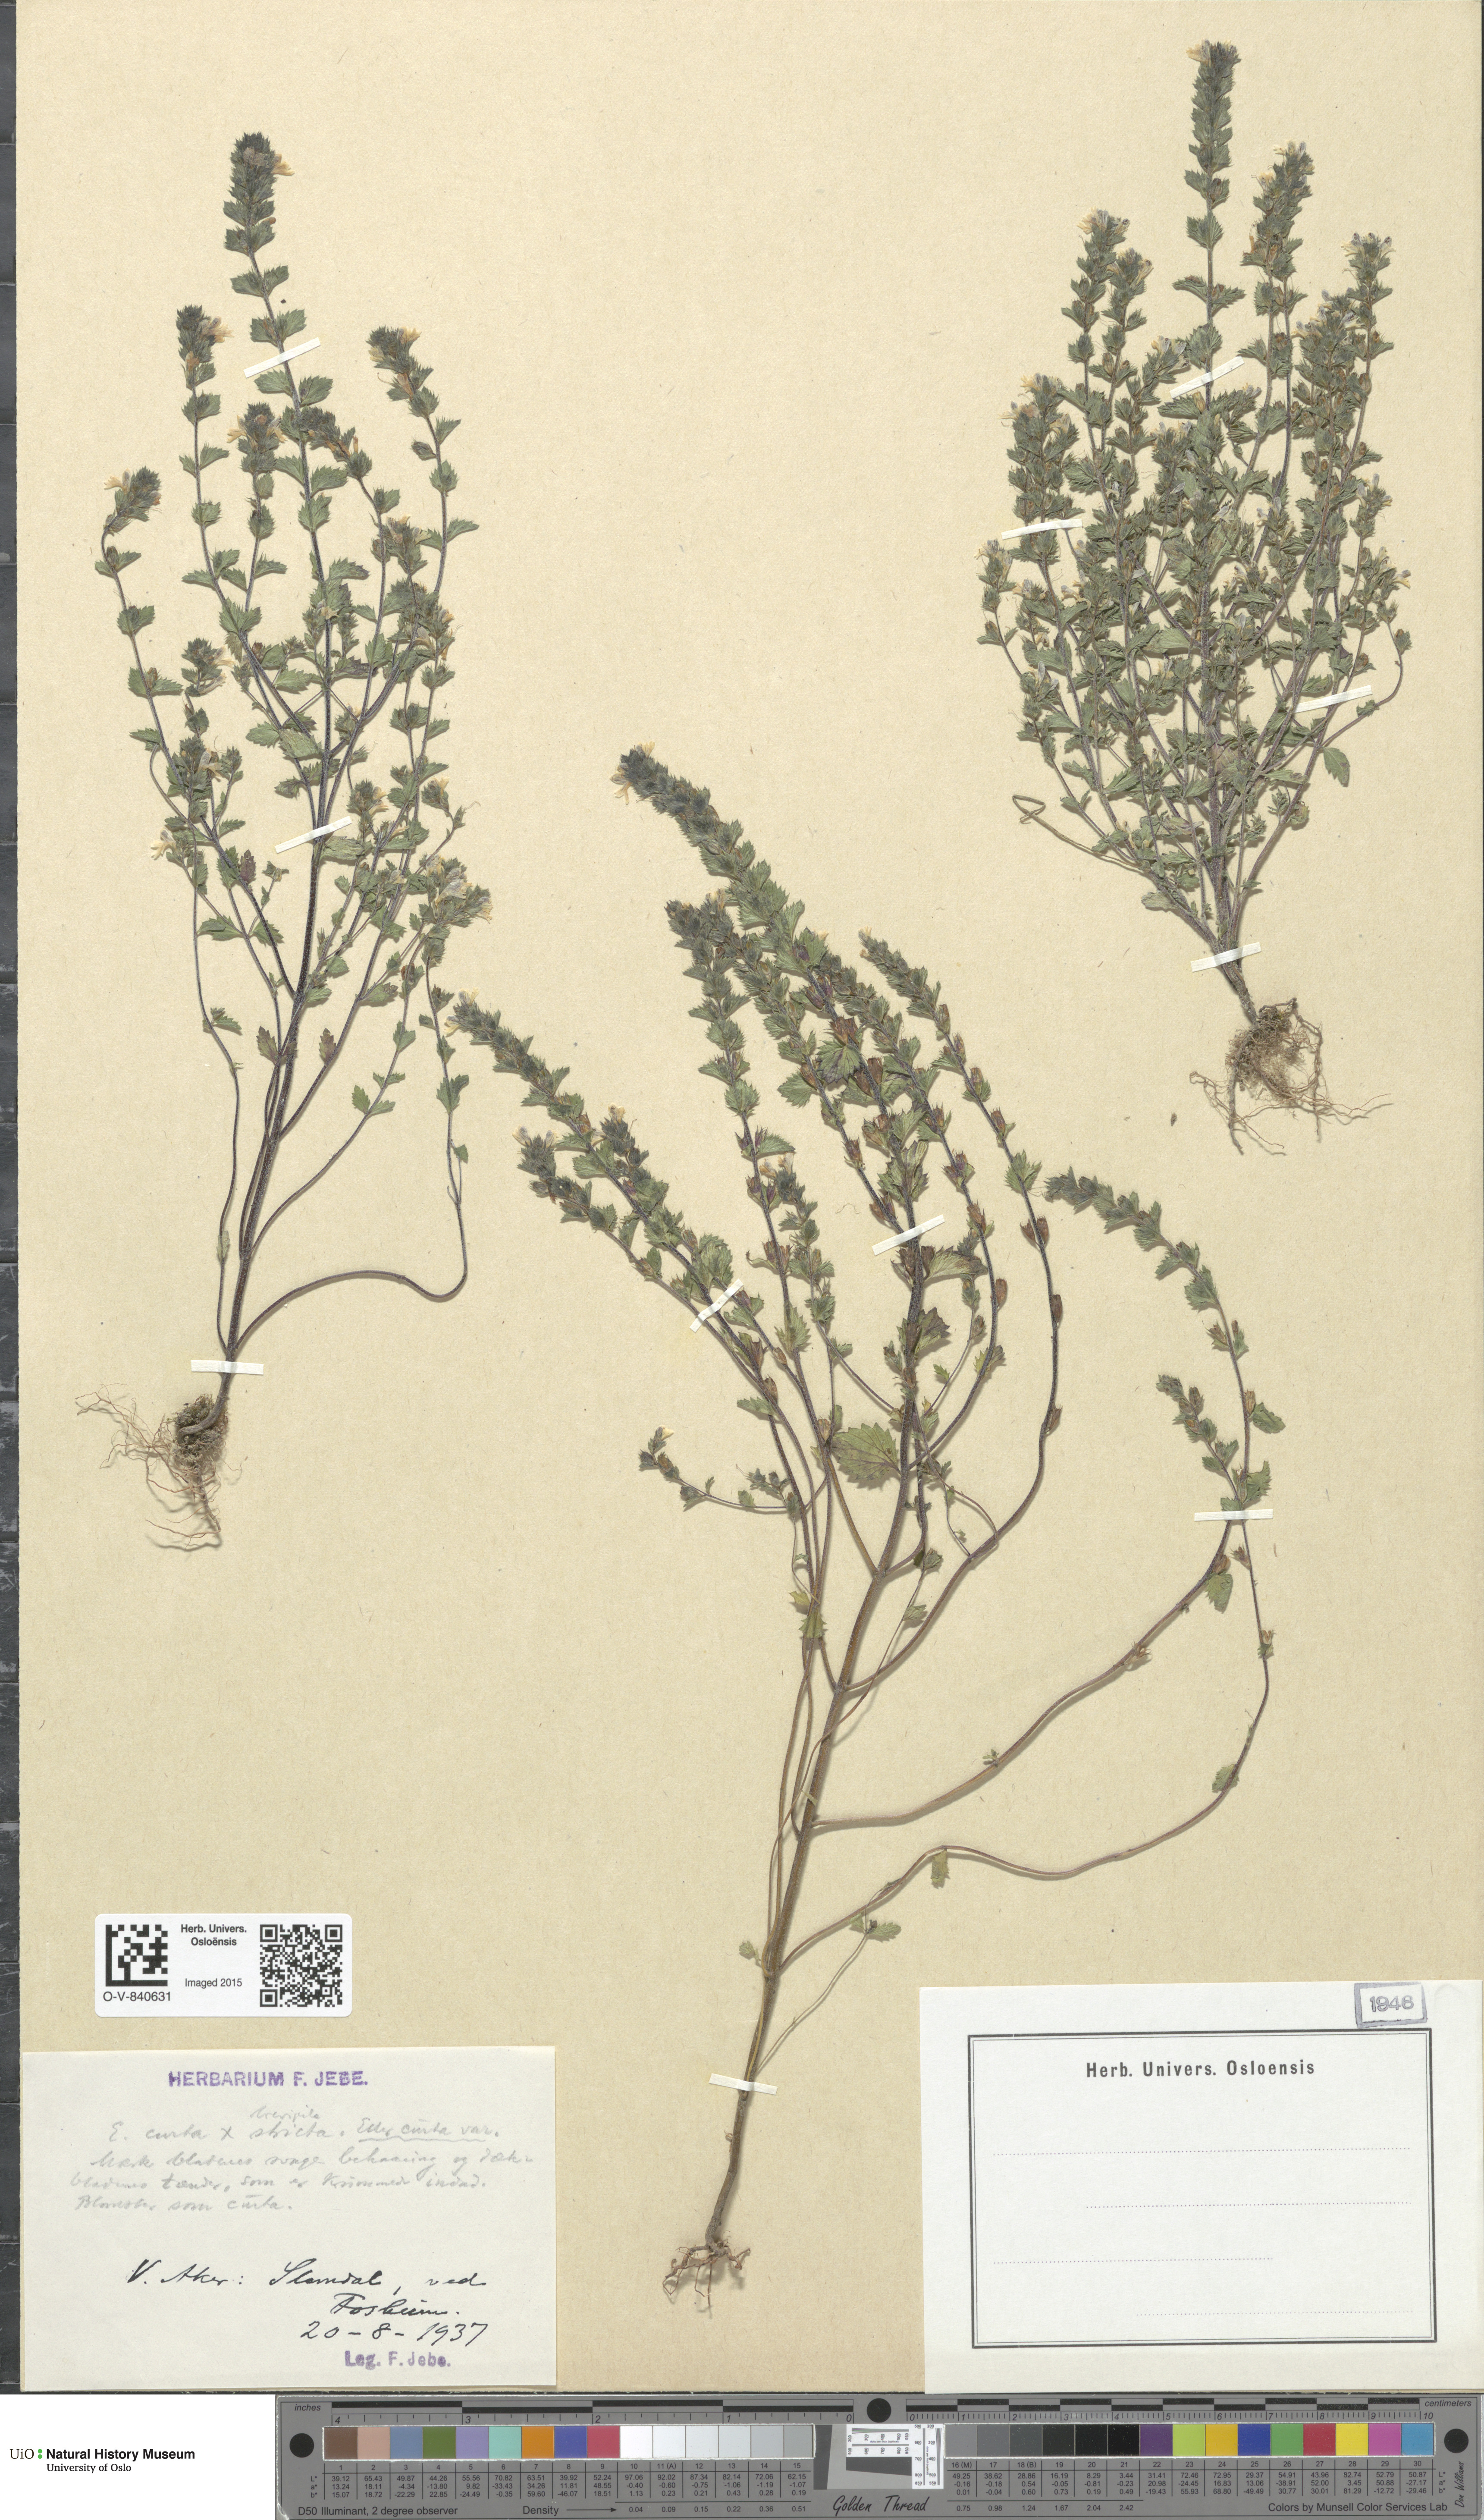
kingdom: Plantae
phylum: Tracheophyta
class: Magnoliopsida
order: Lamiales
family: Orobanchaceae
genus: Euphrasia
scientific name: Euphrasia micrantha
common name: Northern eyebright
